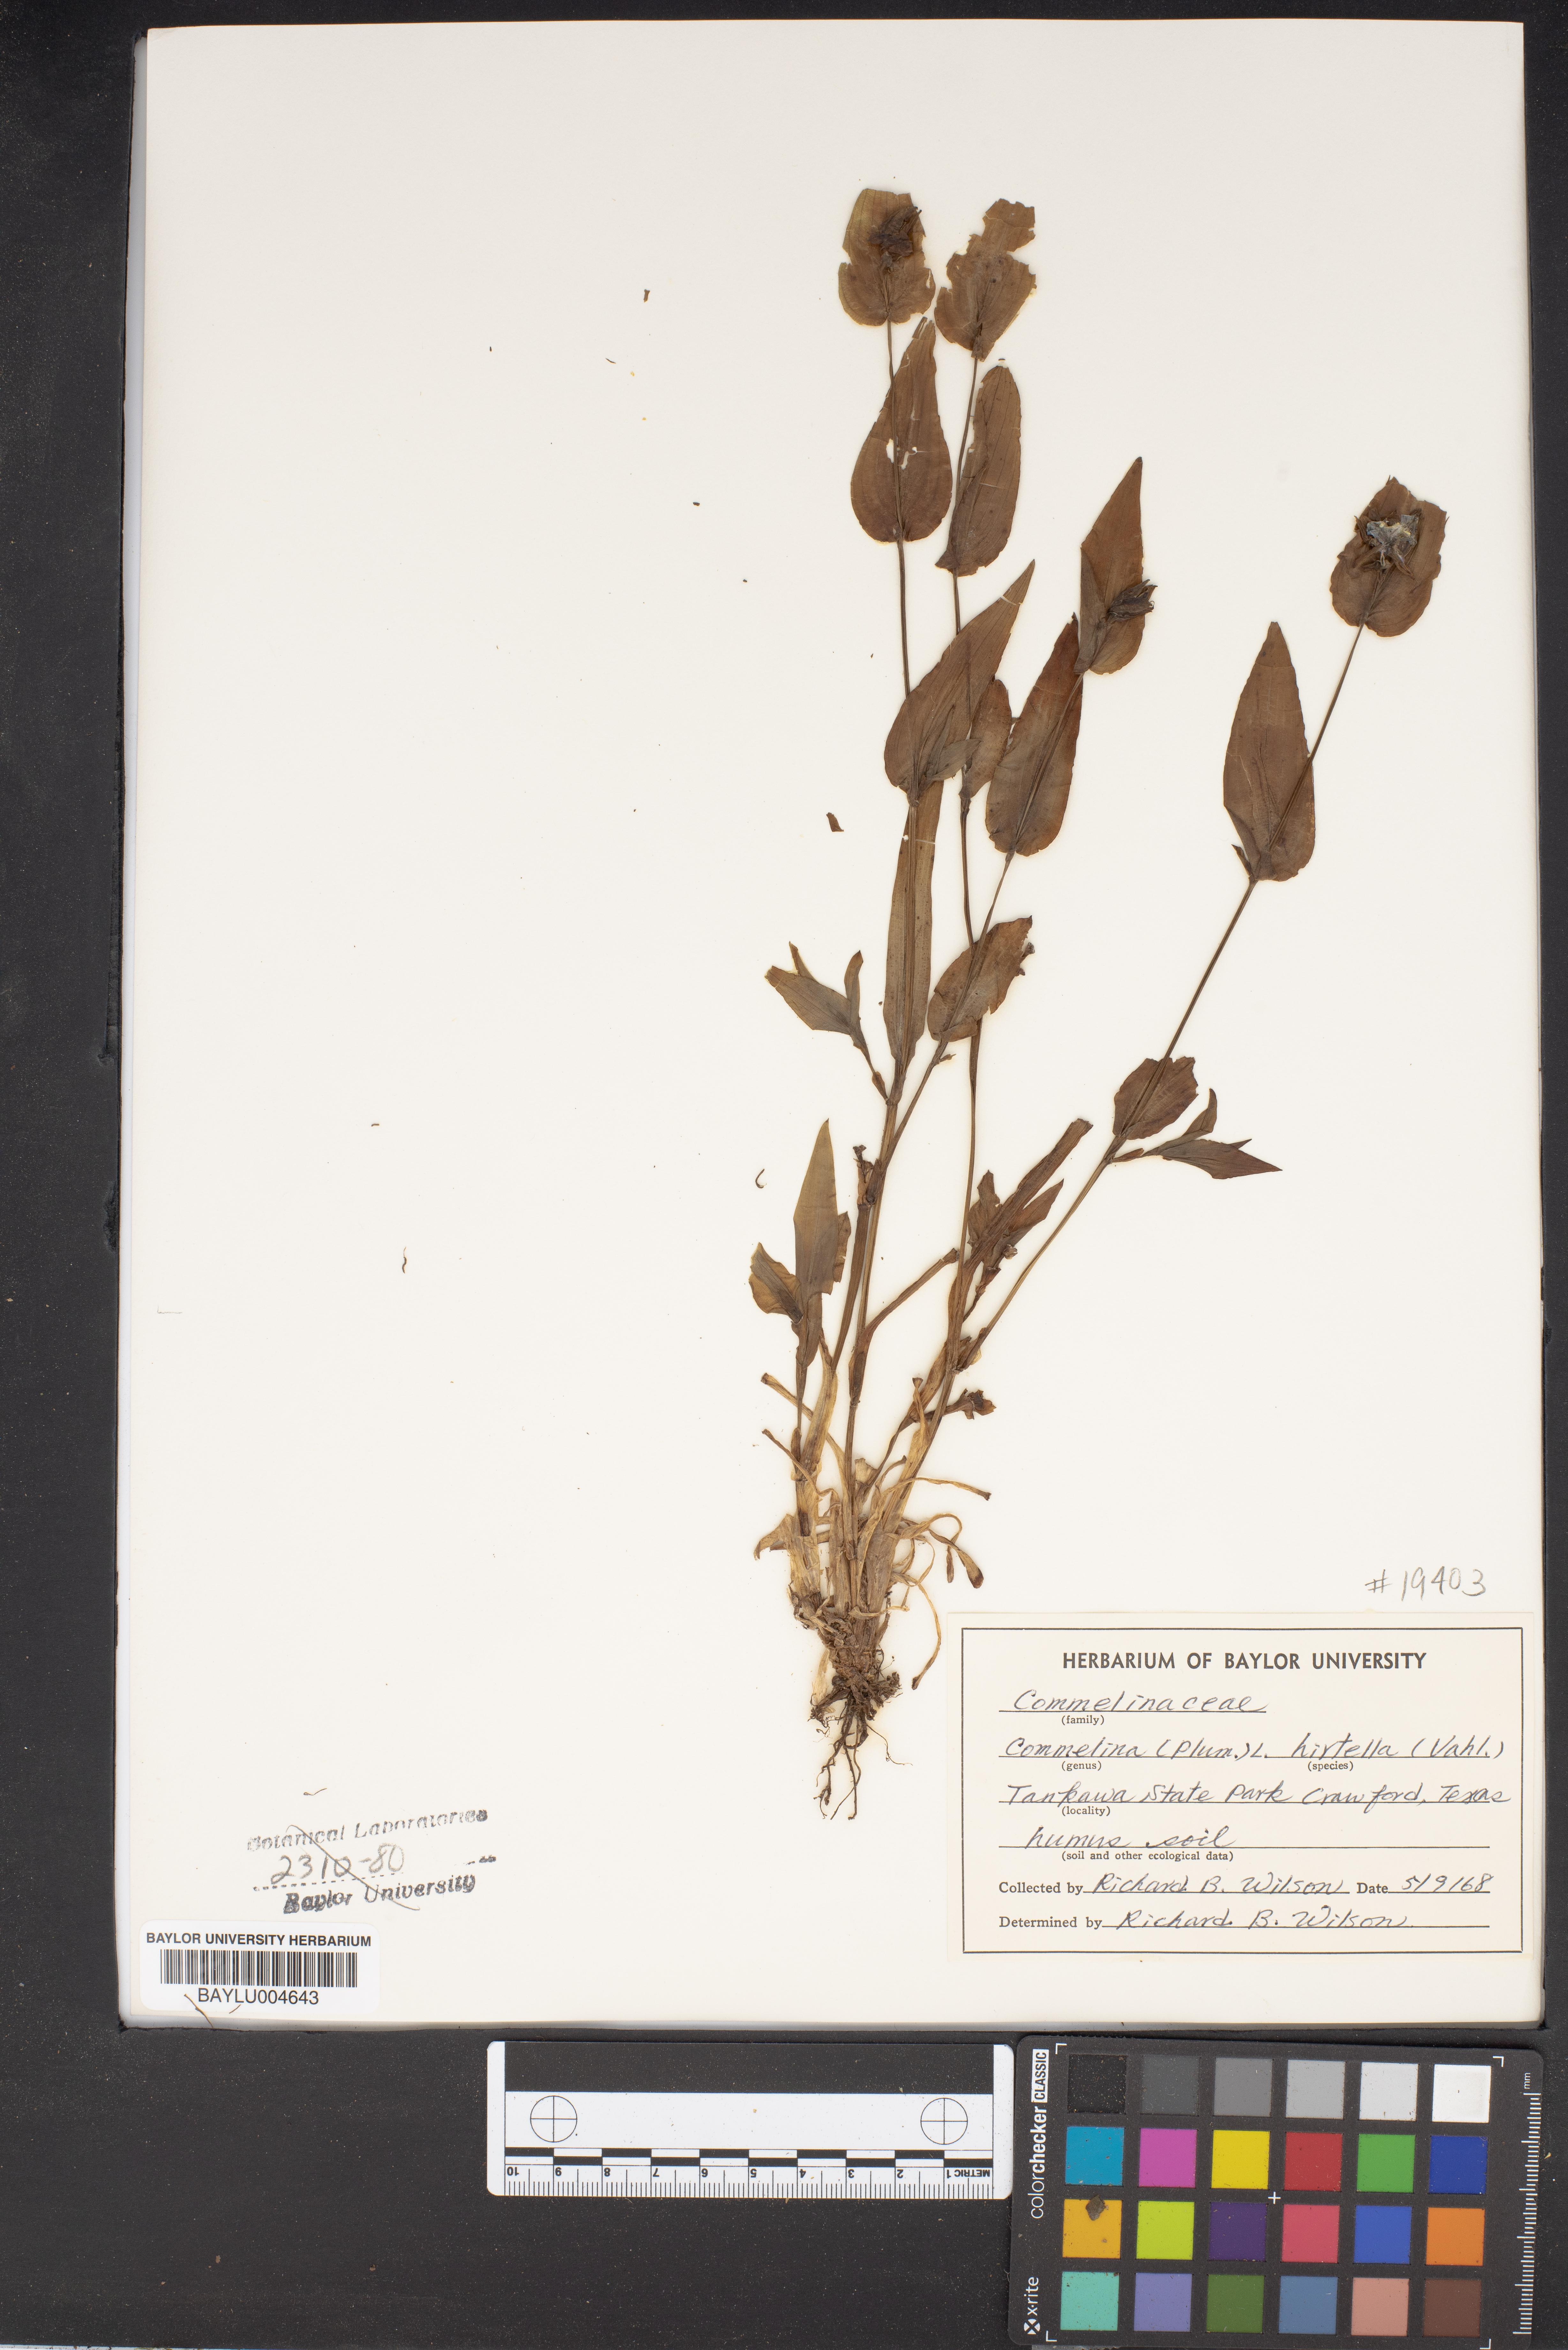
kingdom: Plantae
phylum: Tracheophyta
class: Liliopsida
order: Commelinales
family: Commelinaceae
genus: Commelina
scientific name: Commelina virginica
